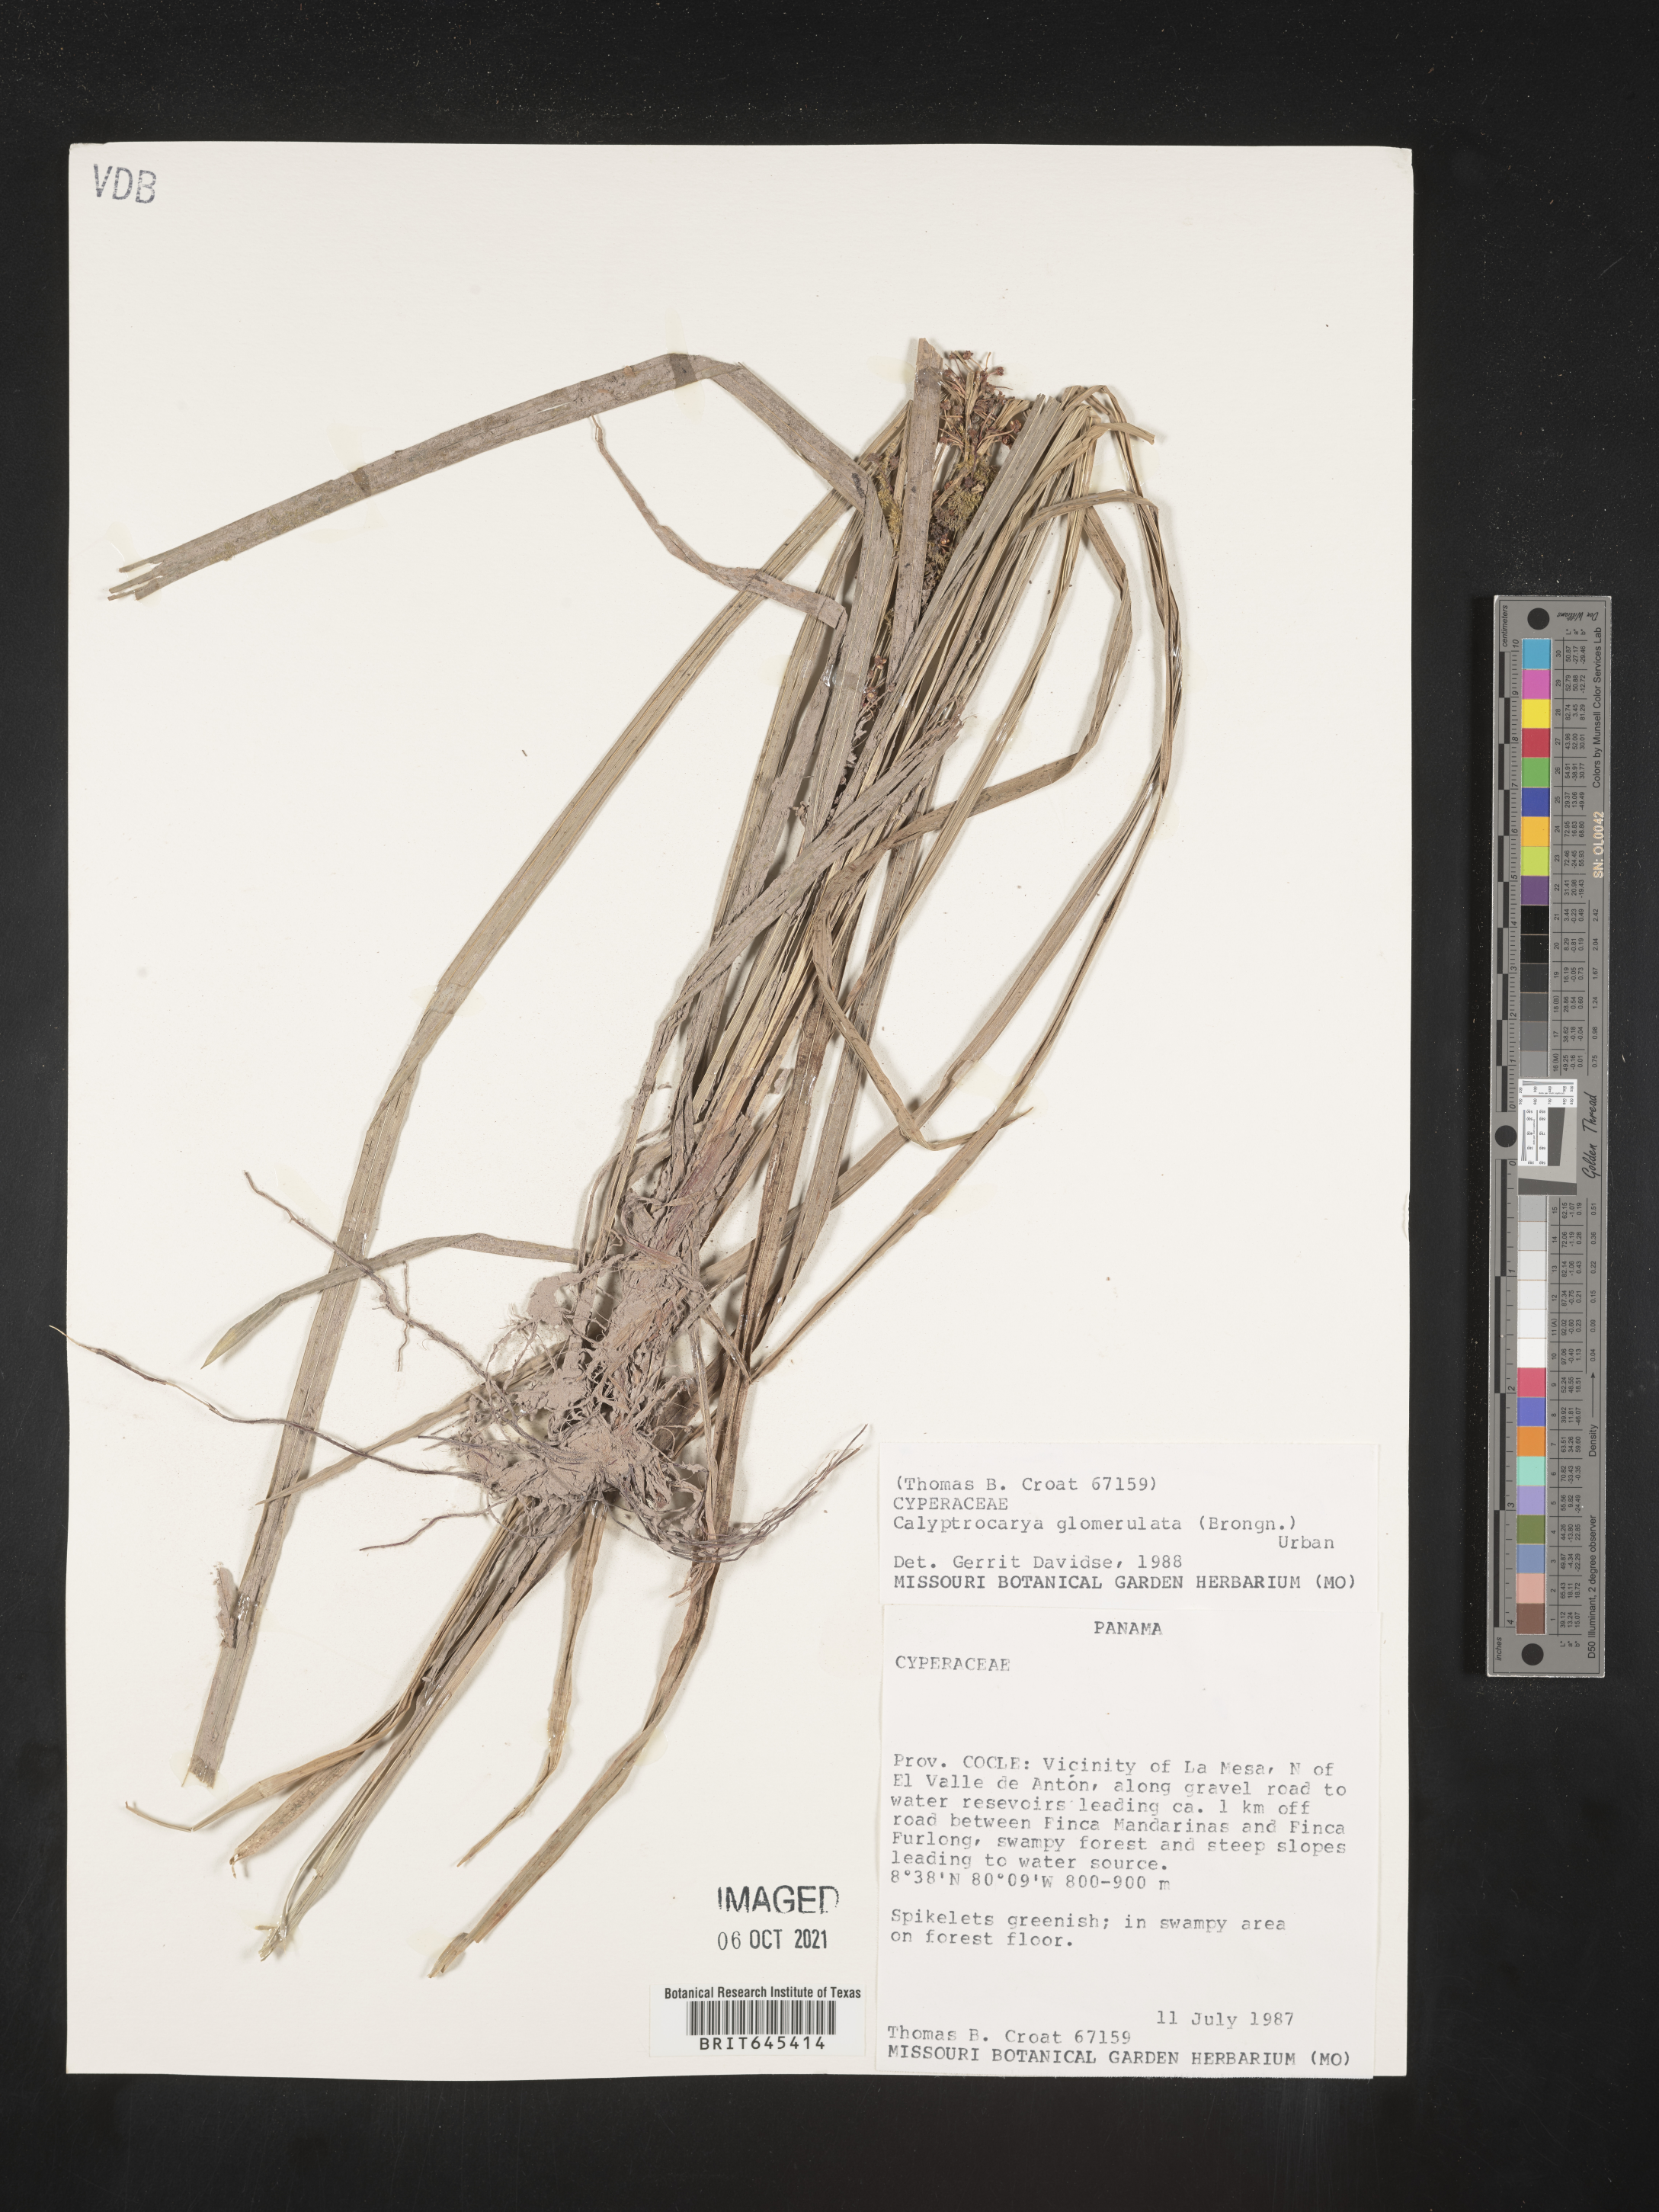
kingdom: Plantae
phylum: Tracheophyta
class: Liliopsida
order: Poales
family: Cyperaceae
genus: Calyptrocarya
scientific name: Calyptrocarya glomerulata
